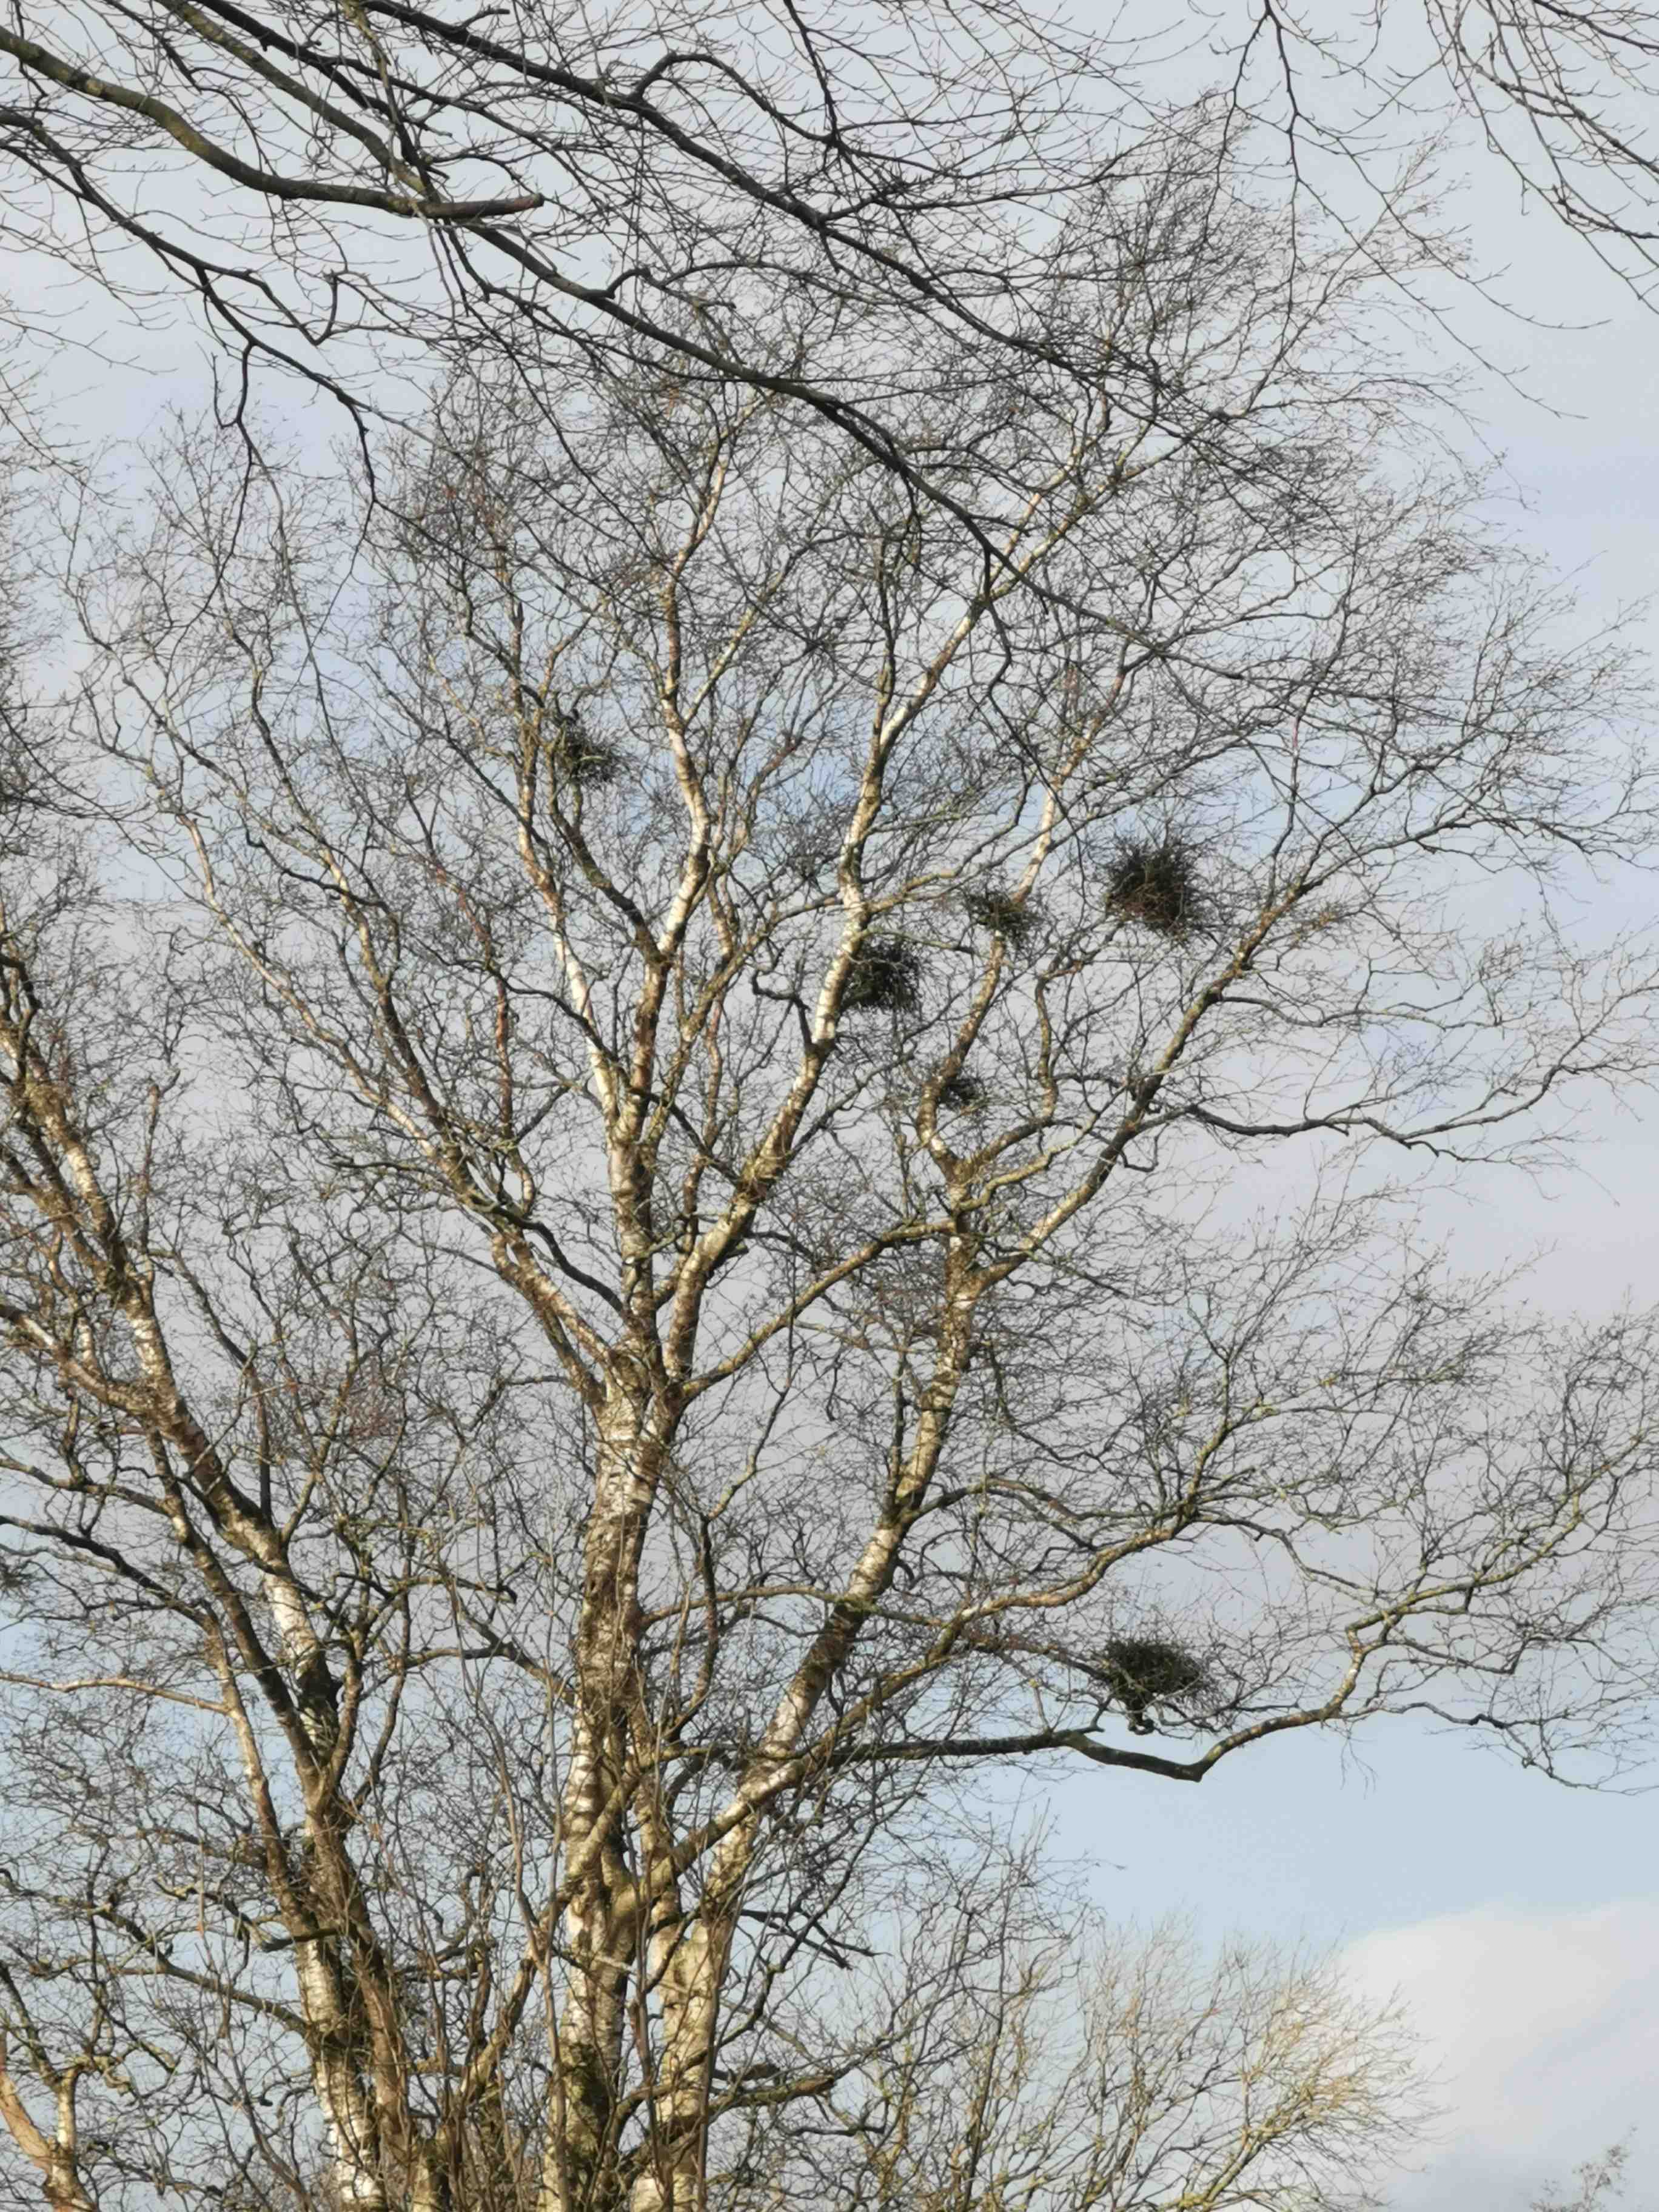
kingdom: Fungi
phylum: Ascomycota
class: Taphrinomycetes
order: Taphrinales
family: Taphrinaceae
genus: Taphrina
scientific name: Taphrina betulina
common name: hekse-sækdug
